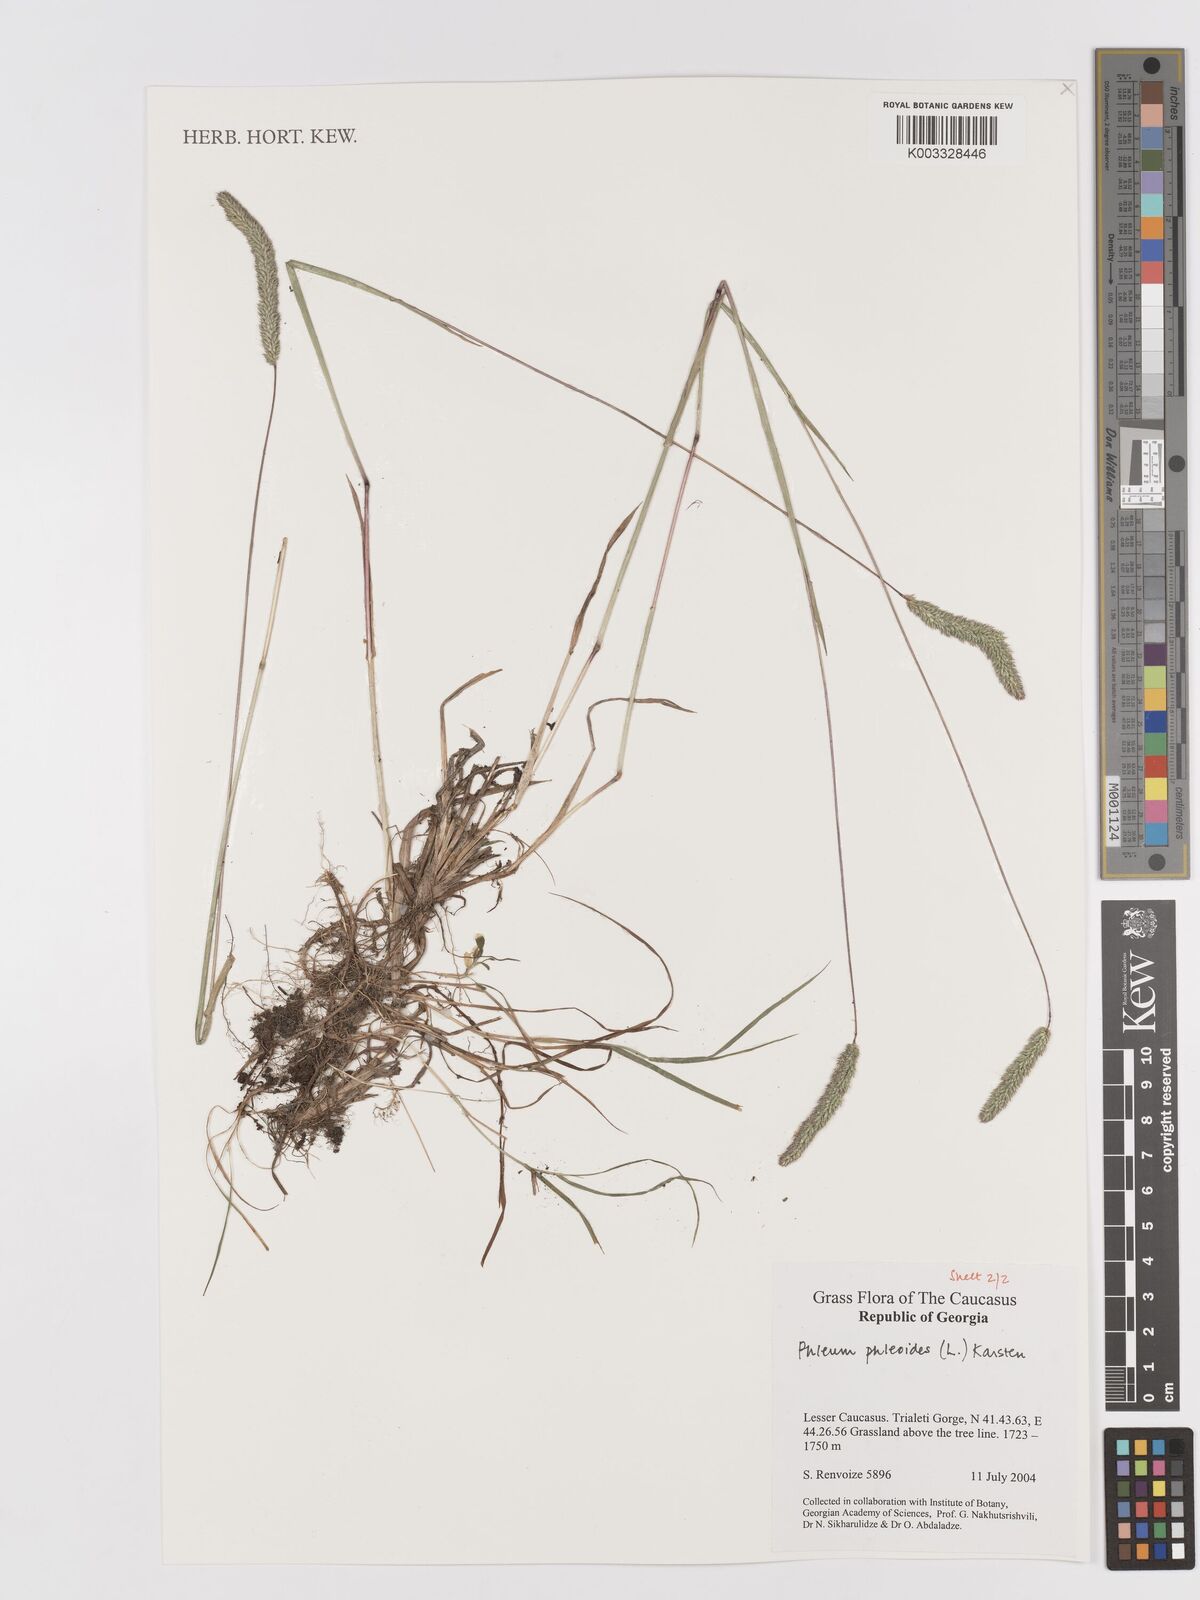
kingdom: Plantae
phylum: Tracheophyta
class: Liliopsida
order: Poales
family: Poaceae
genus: Phleum
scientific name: Phleum phleoides
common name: Purple-stem cat's-tail
